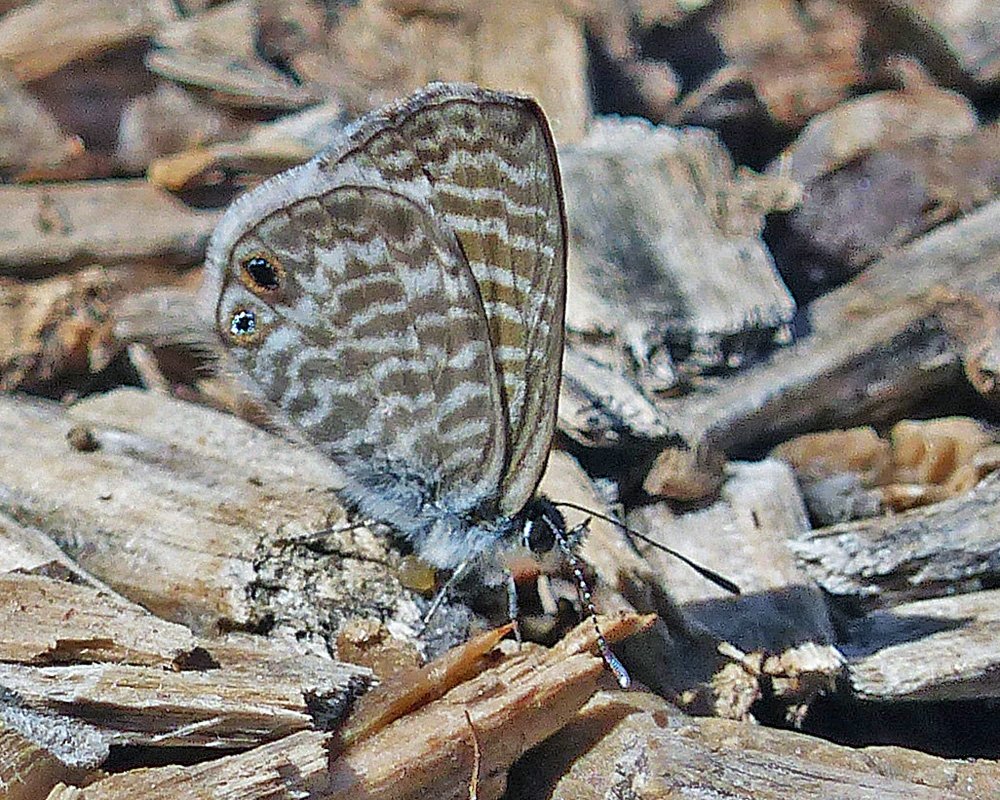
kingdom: Animalia
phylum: Arthropoda
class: Insecta
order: Lepidoptera
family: Lycaenidae
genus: Leptotes
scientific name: Leptotes marina
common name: Marine Blue
